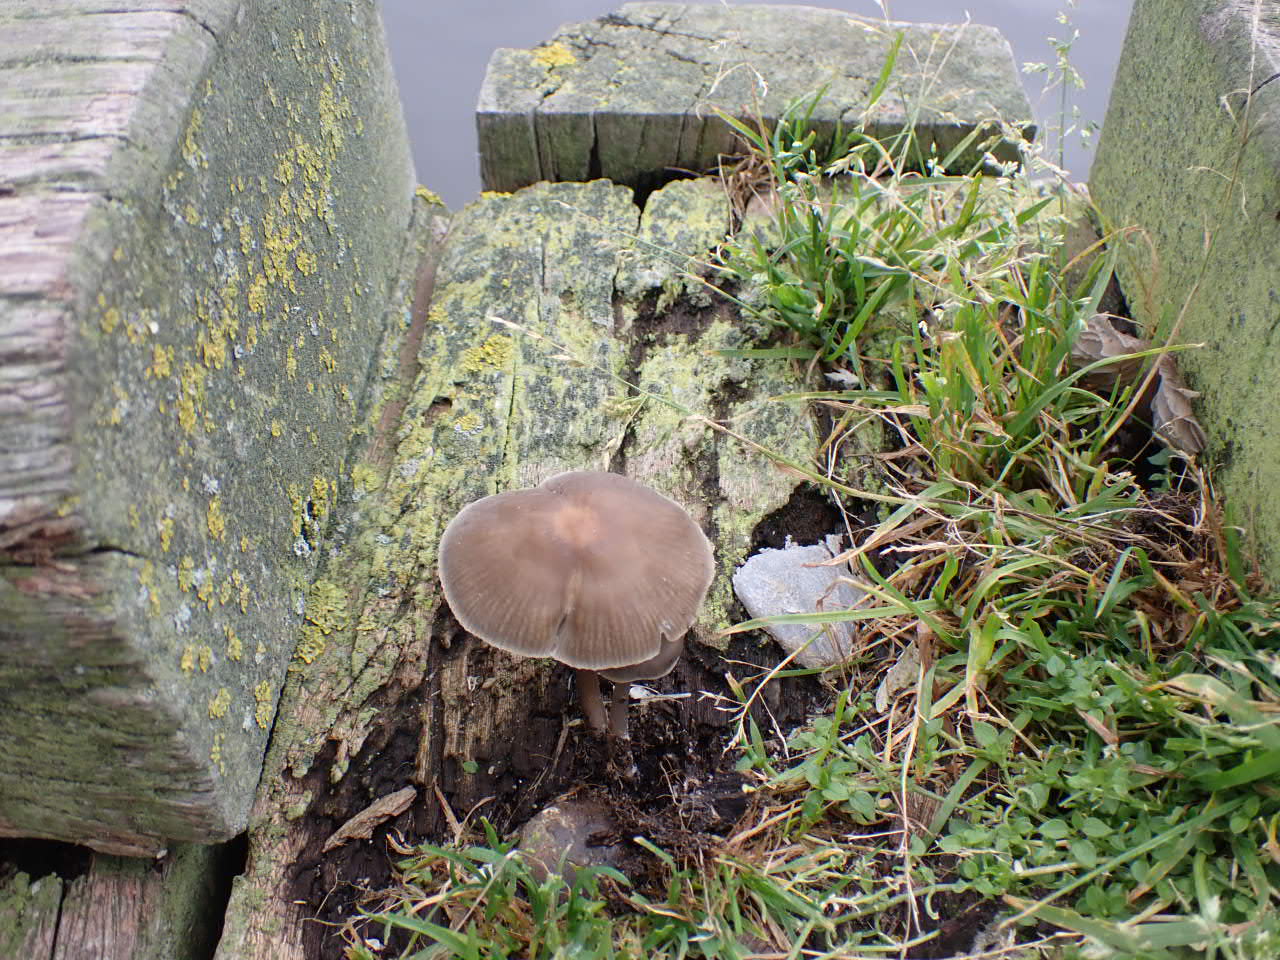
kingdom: Fungi
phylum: Basidiomycota
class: Agaricomycetes
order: Agaricales
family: Mycenaceae
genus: Mycena
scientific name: Mycena galericulata
